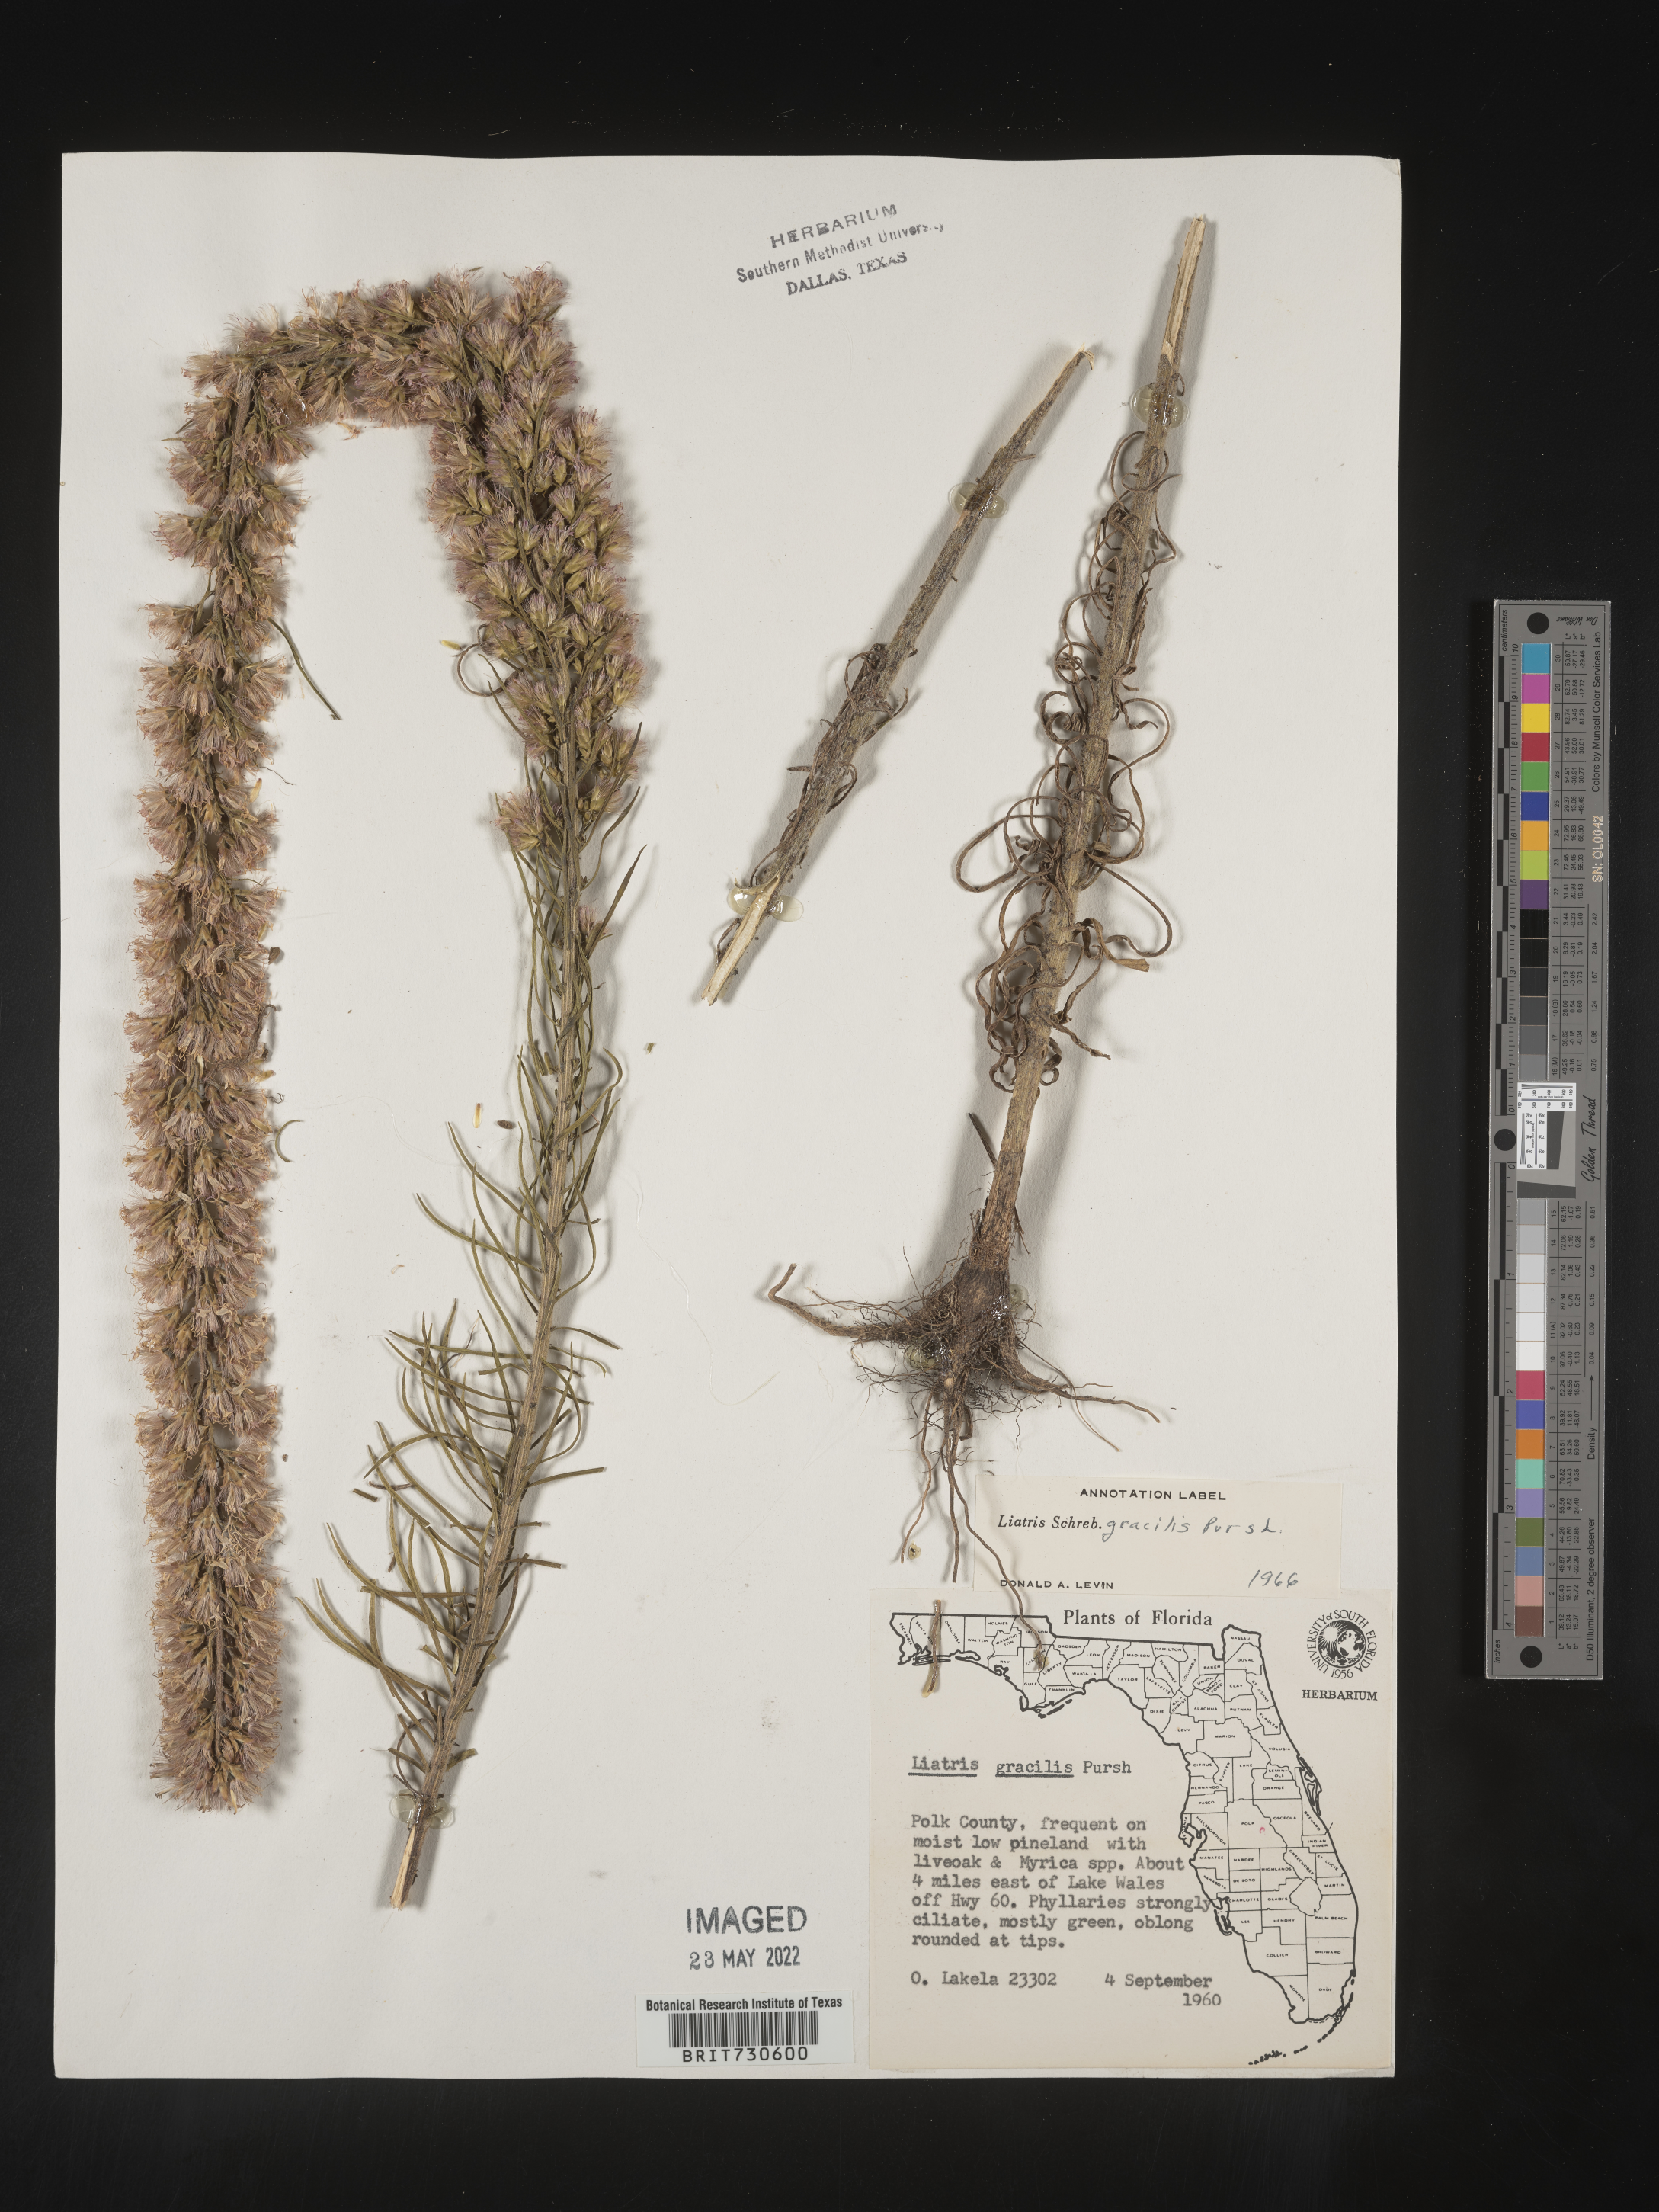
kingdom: Plantae
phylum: Tracheophyta
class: Magnoliopsida
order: Asterales
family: Asteraceae
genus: Liatris
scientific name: Liatris gracilis
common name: Slender gayfeather
